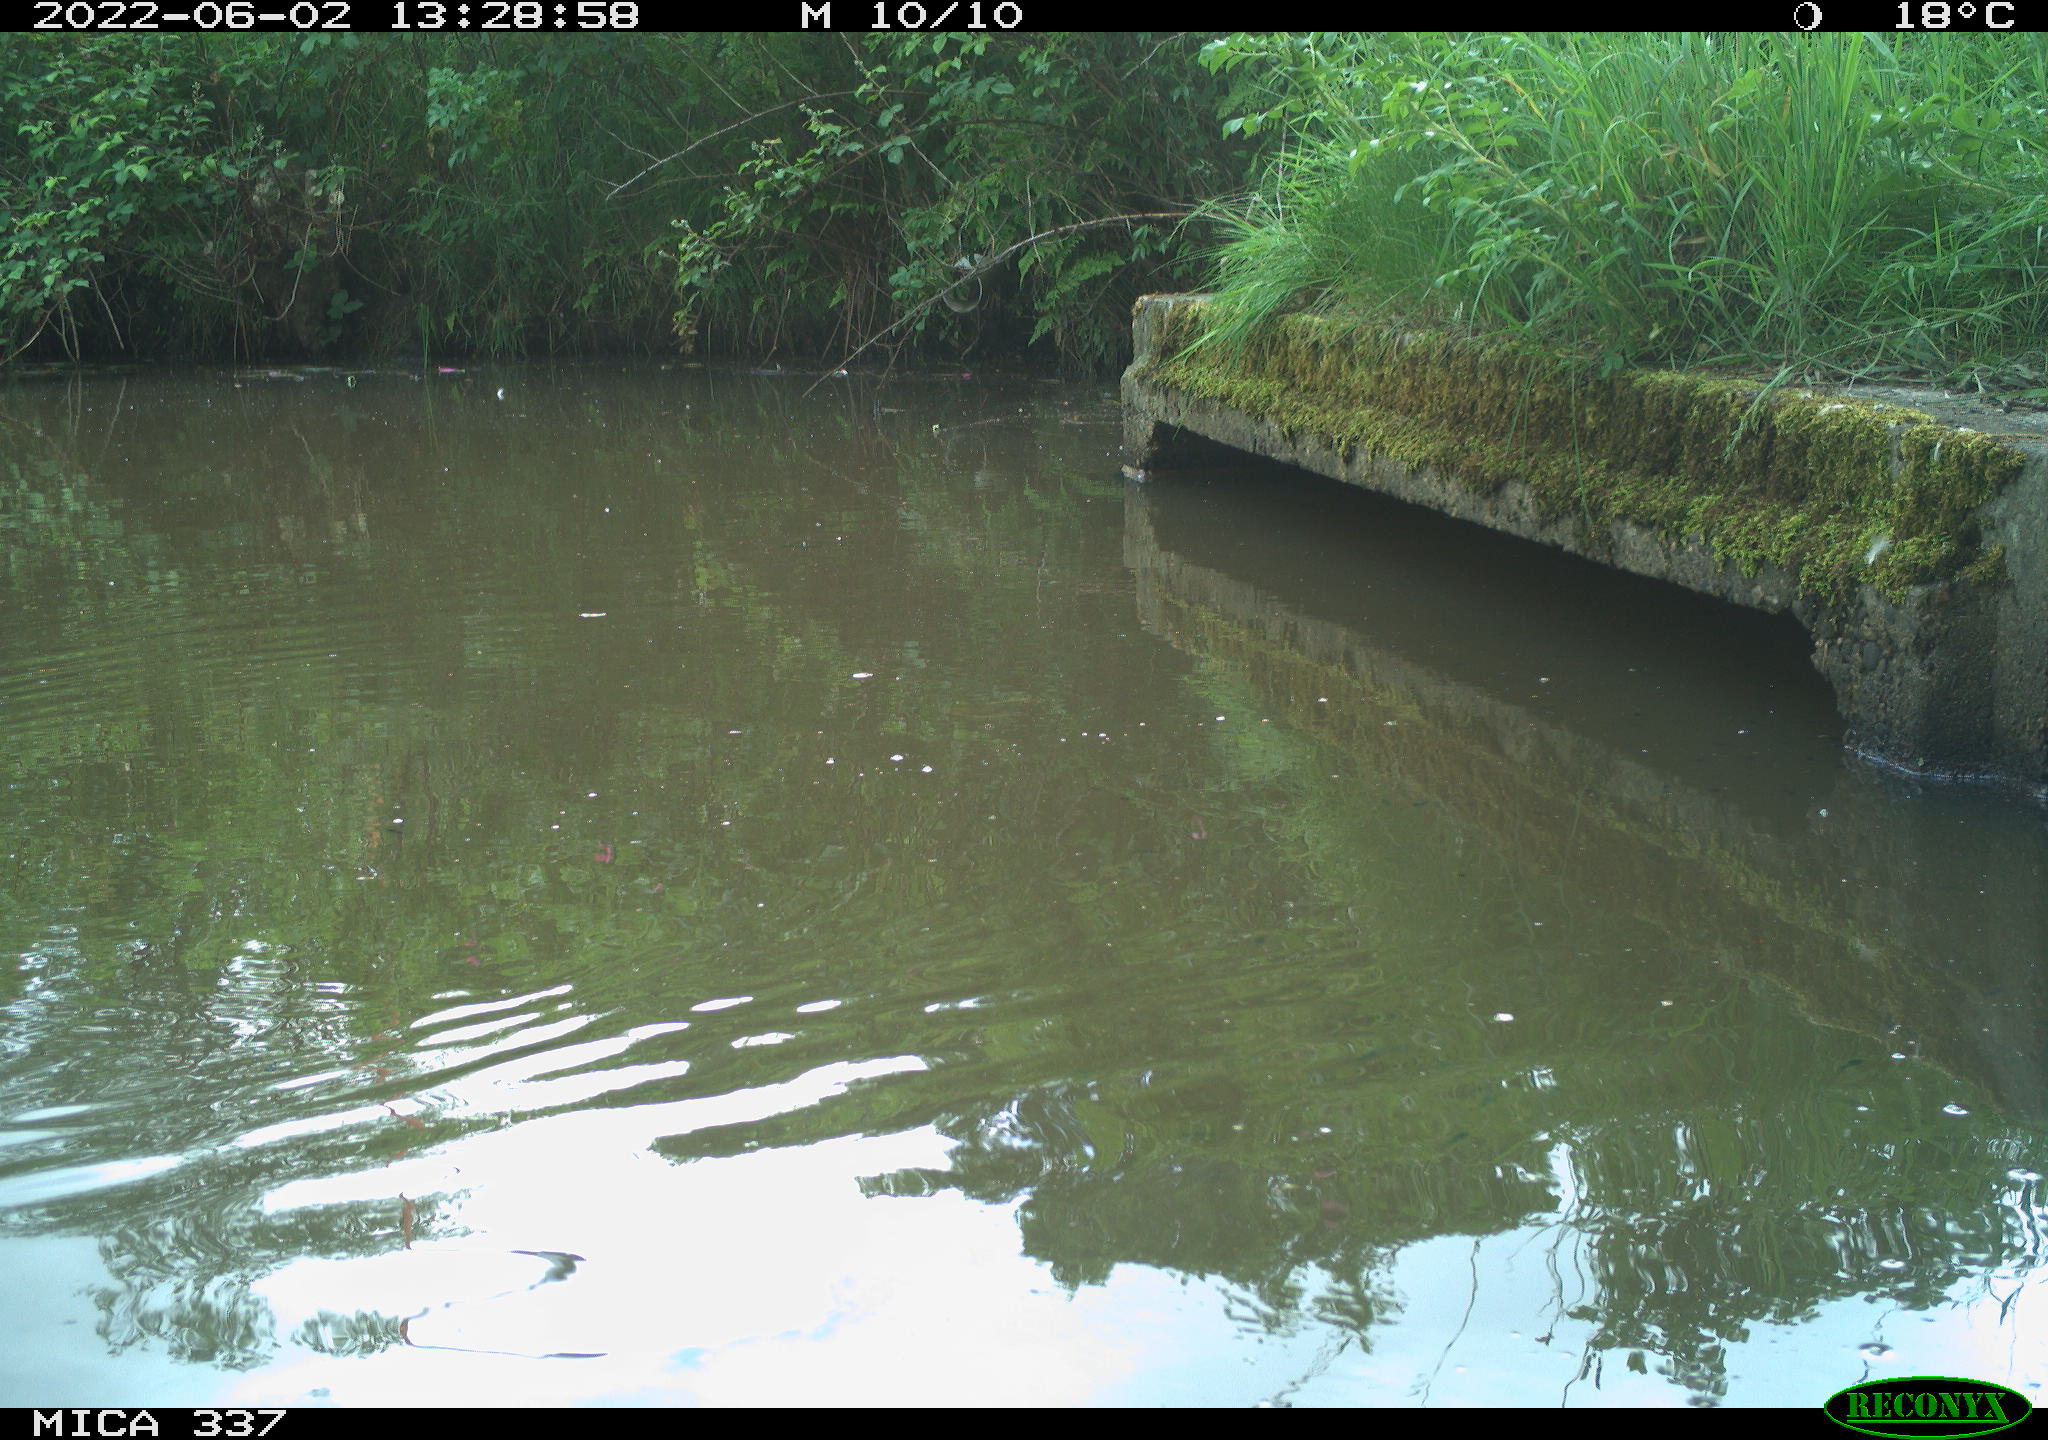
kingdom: Animalia
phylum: Chordata
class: Aves
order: Gruiformes
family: Rallidae
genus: Gallinula
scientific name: Gallinula chloropus
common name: Common moorhen
